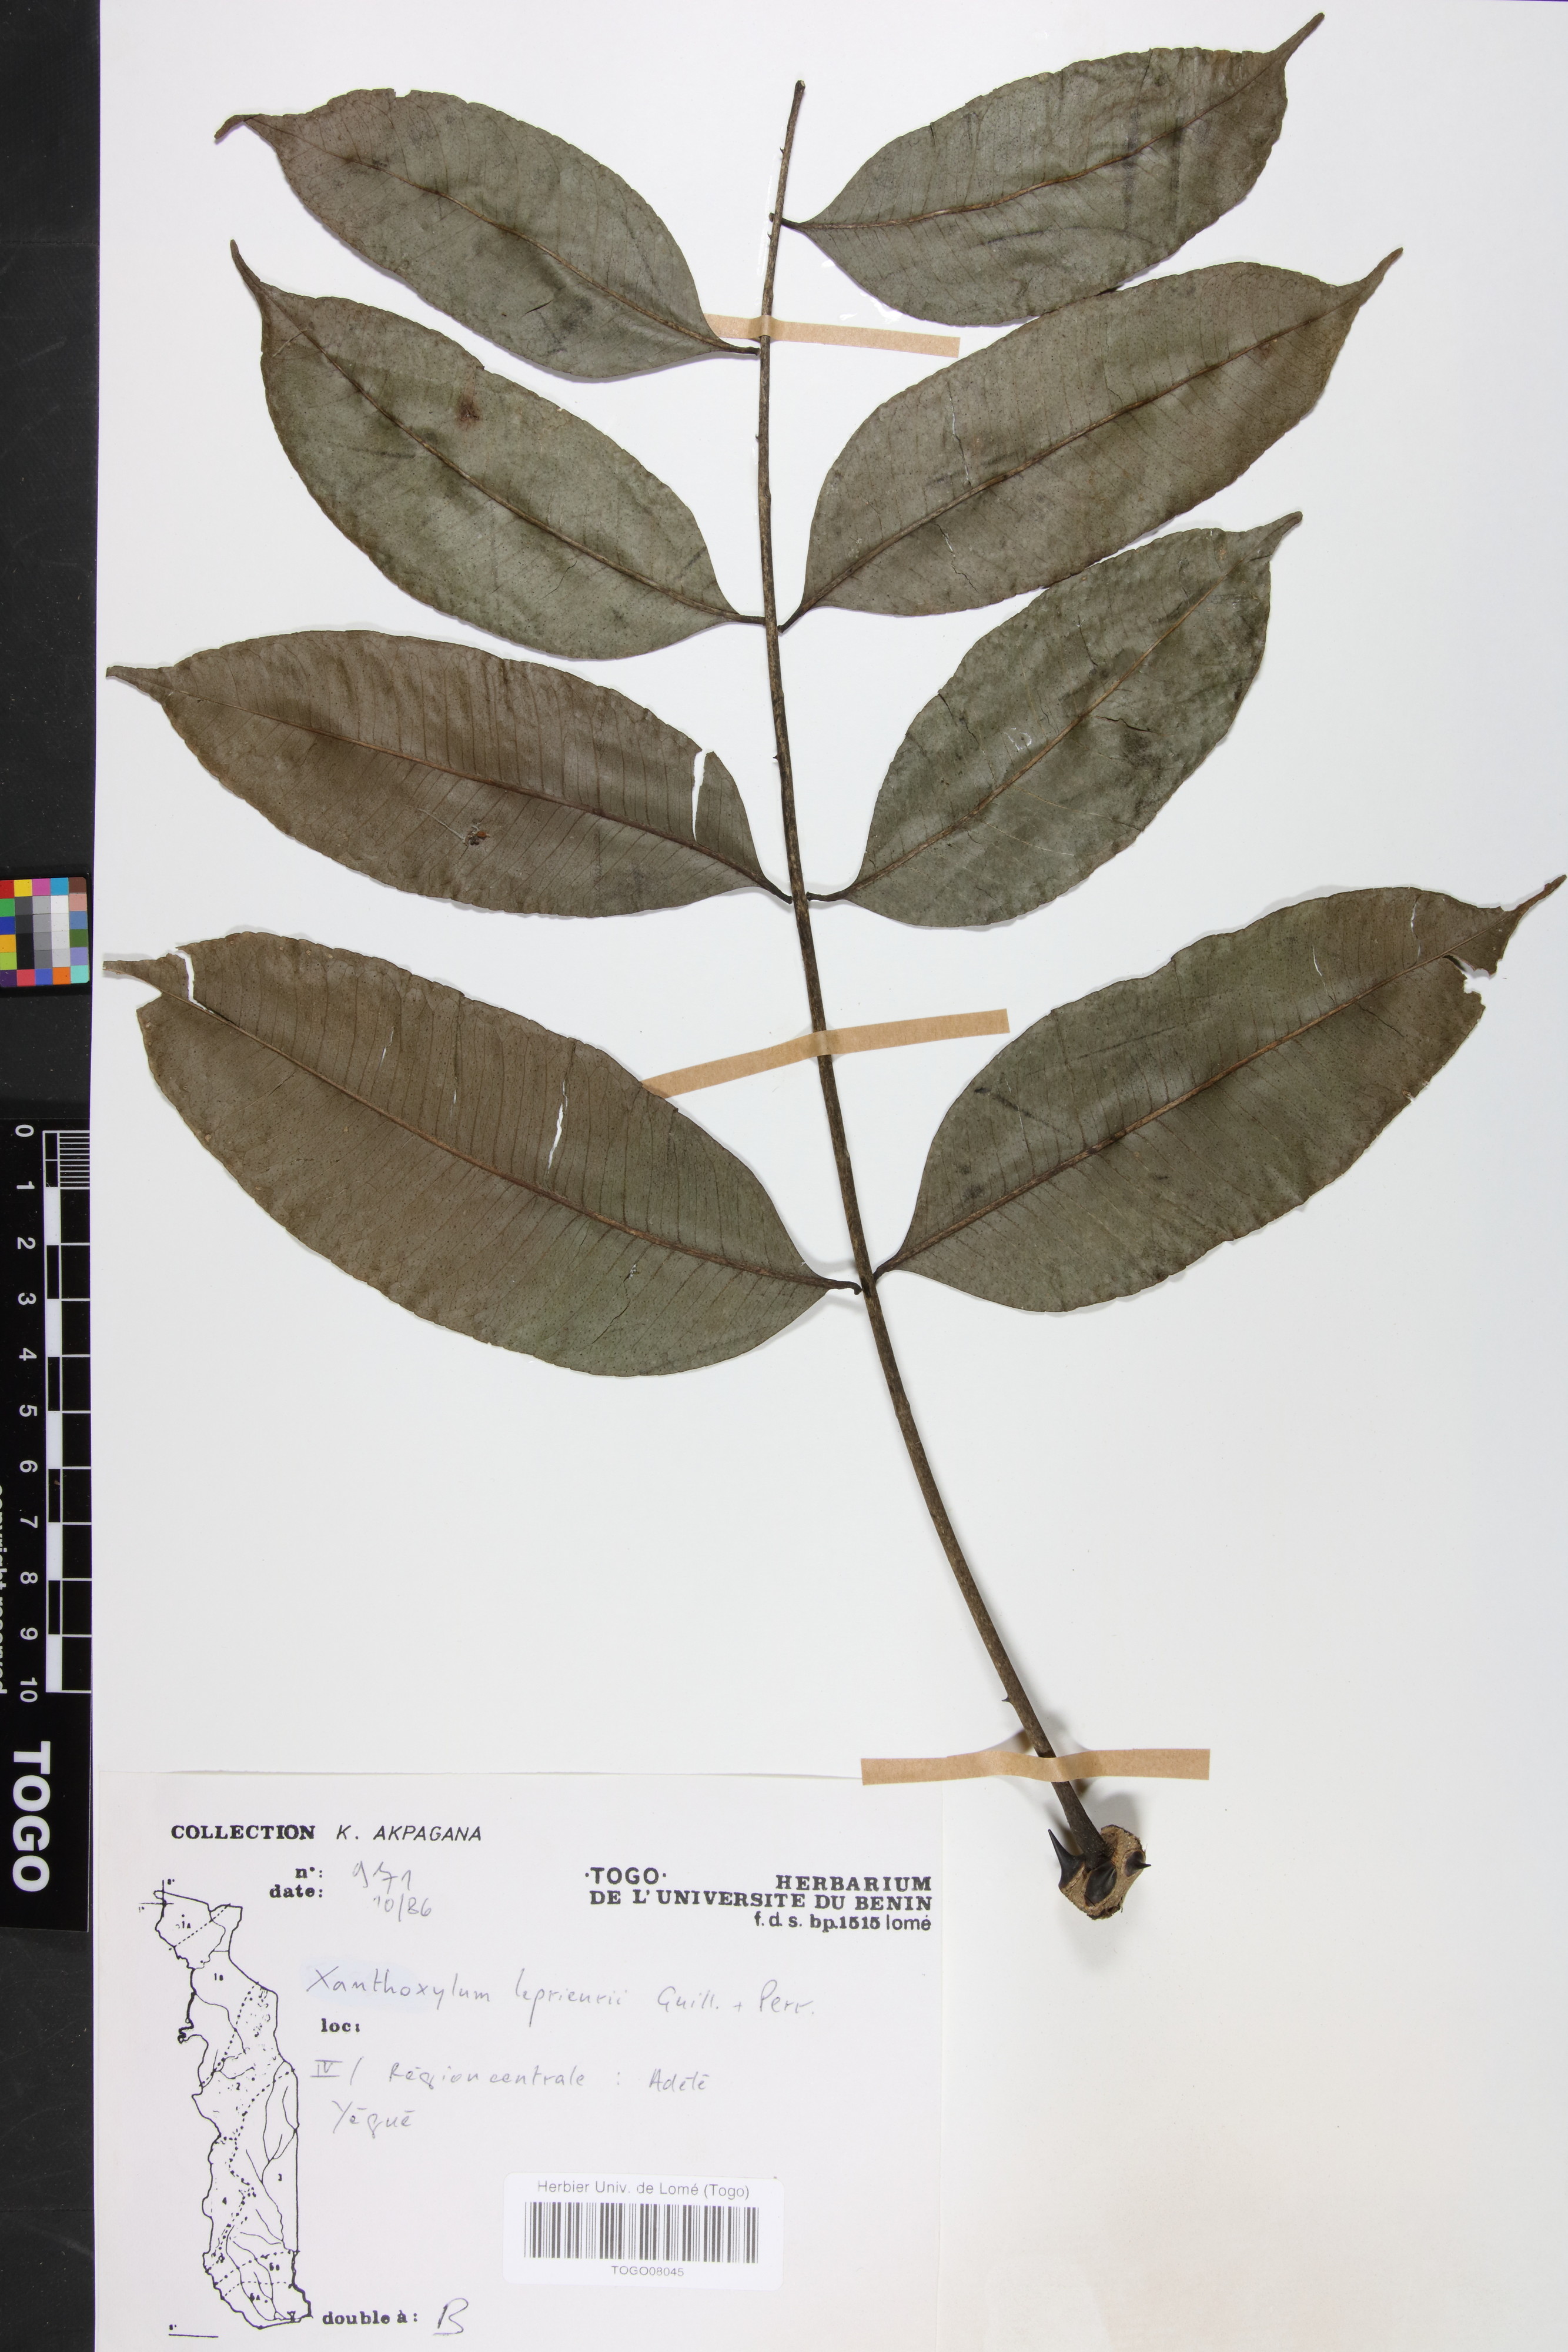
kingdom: Plantae
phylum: Tracheophyta
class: Magnoliopsida
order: Sapindales
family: Rutaceae
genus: Zanthoxylum
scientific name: Zanthoxylum
